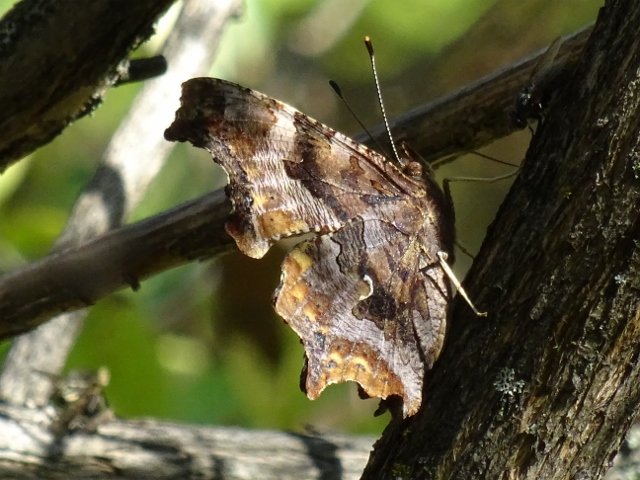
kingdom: Animalia
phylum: Arthropoda
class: Insecta
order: Lepidoptera
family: Nymphalidae
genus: Polygonia
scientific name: Polygonia comma
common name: Eastern Comma
